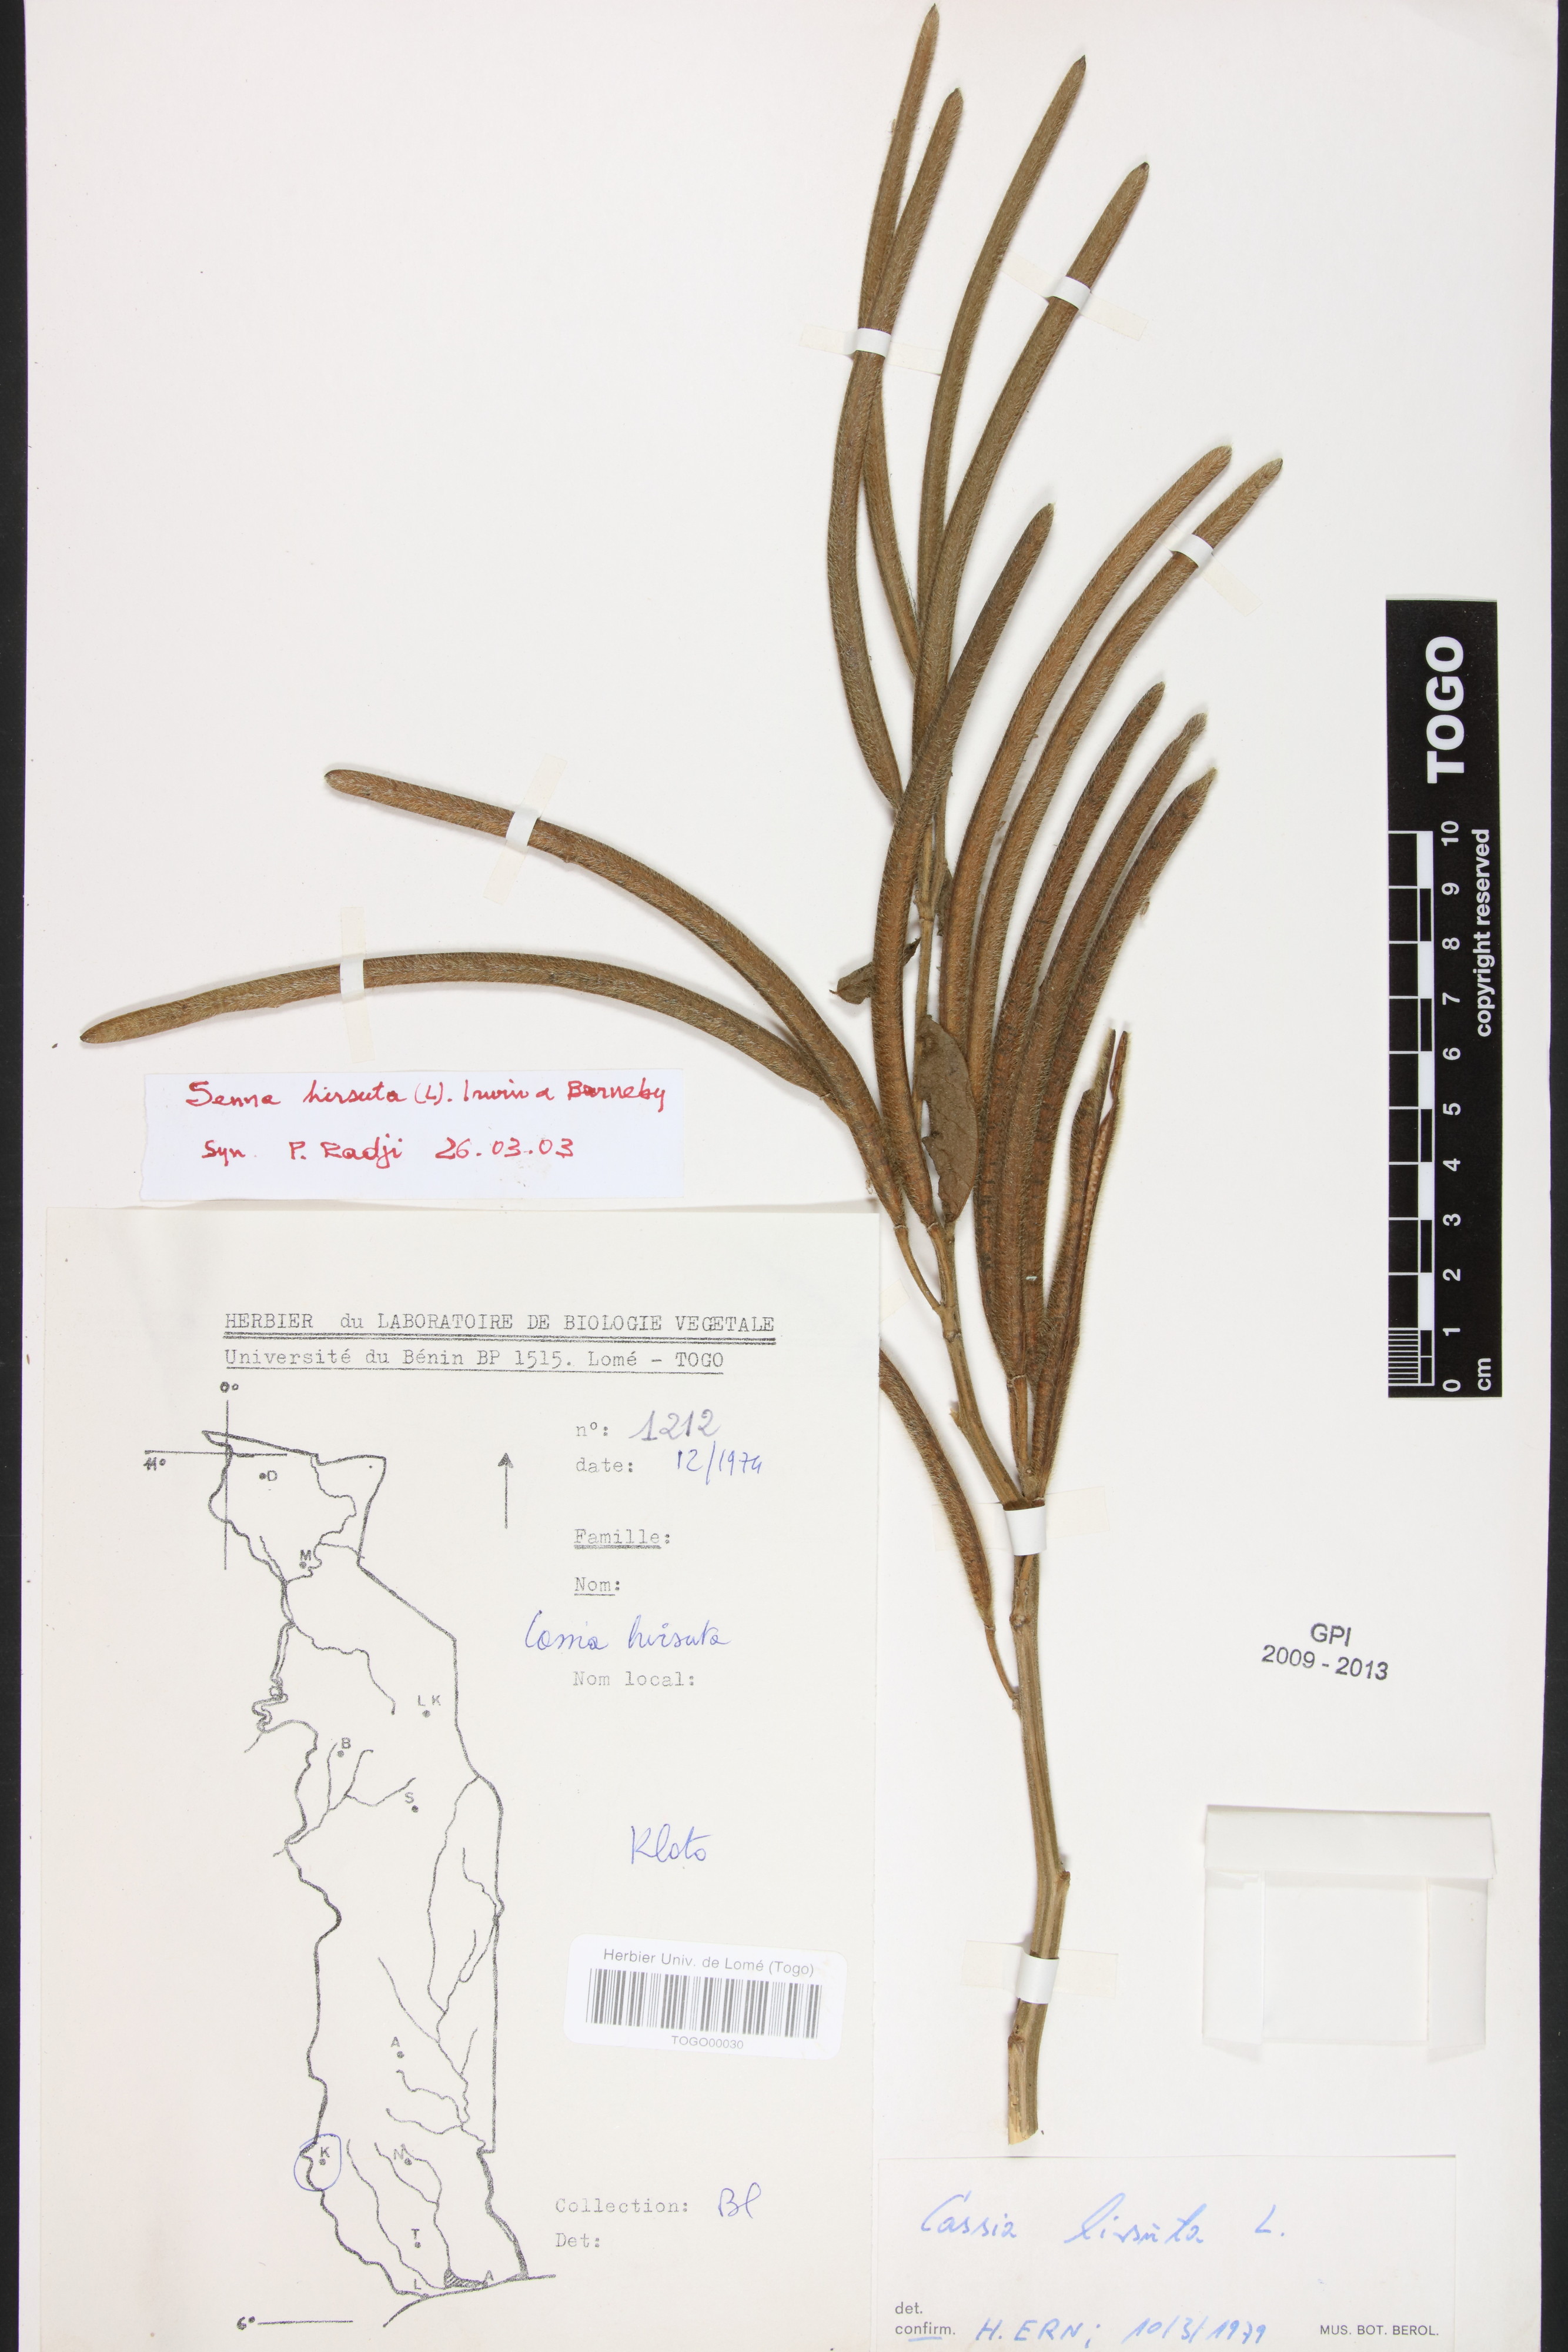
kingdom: Plantae
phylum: Tracheophyta
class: Magnoliopsida
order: Fabales
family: Fabaceae
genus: Senna
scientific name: Senna hirsuta
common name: Woolly senna
